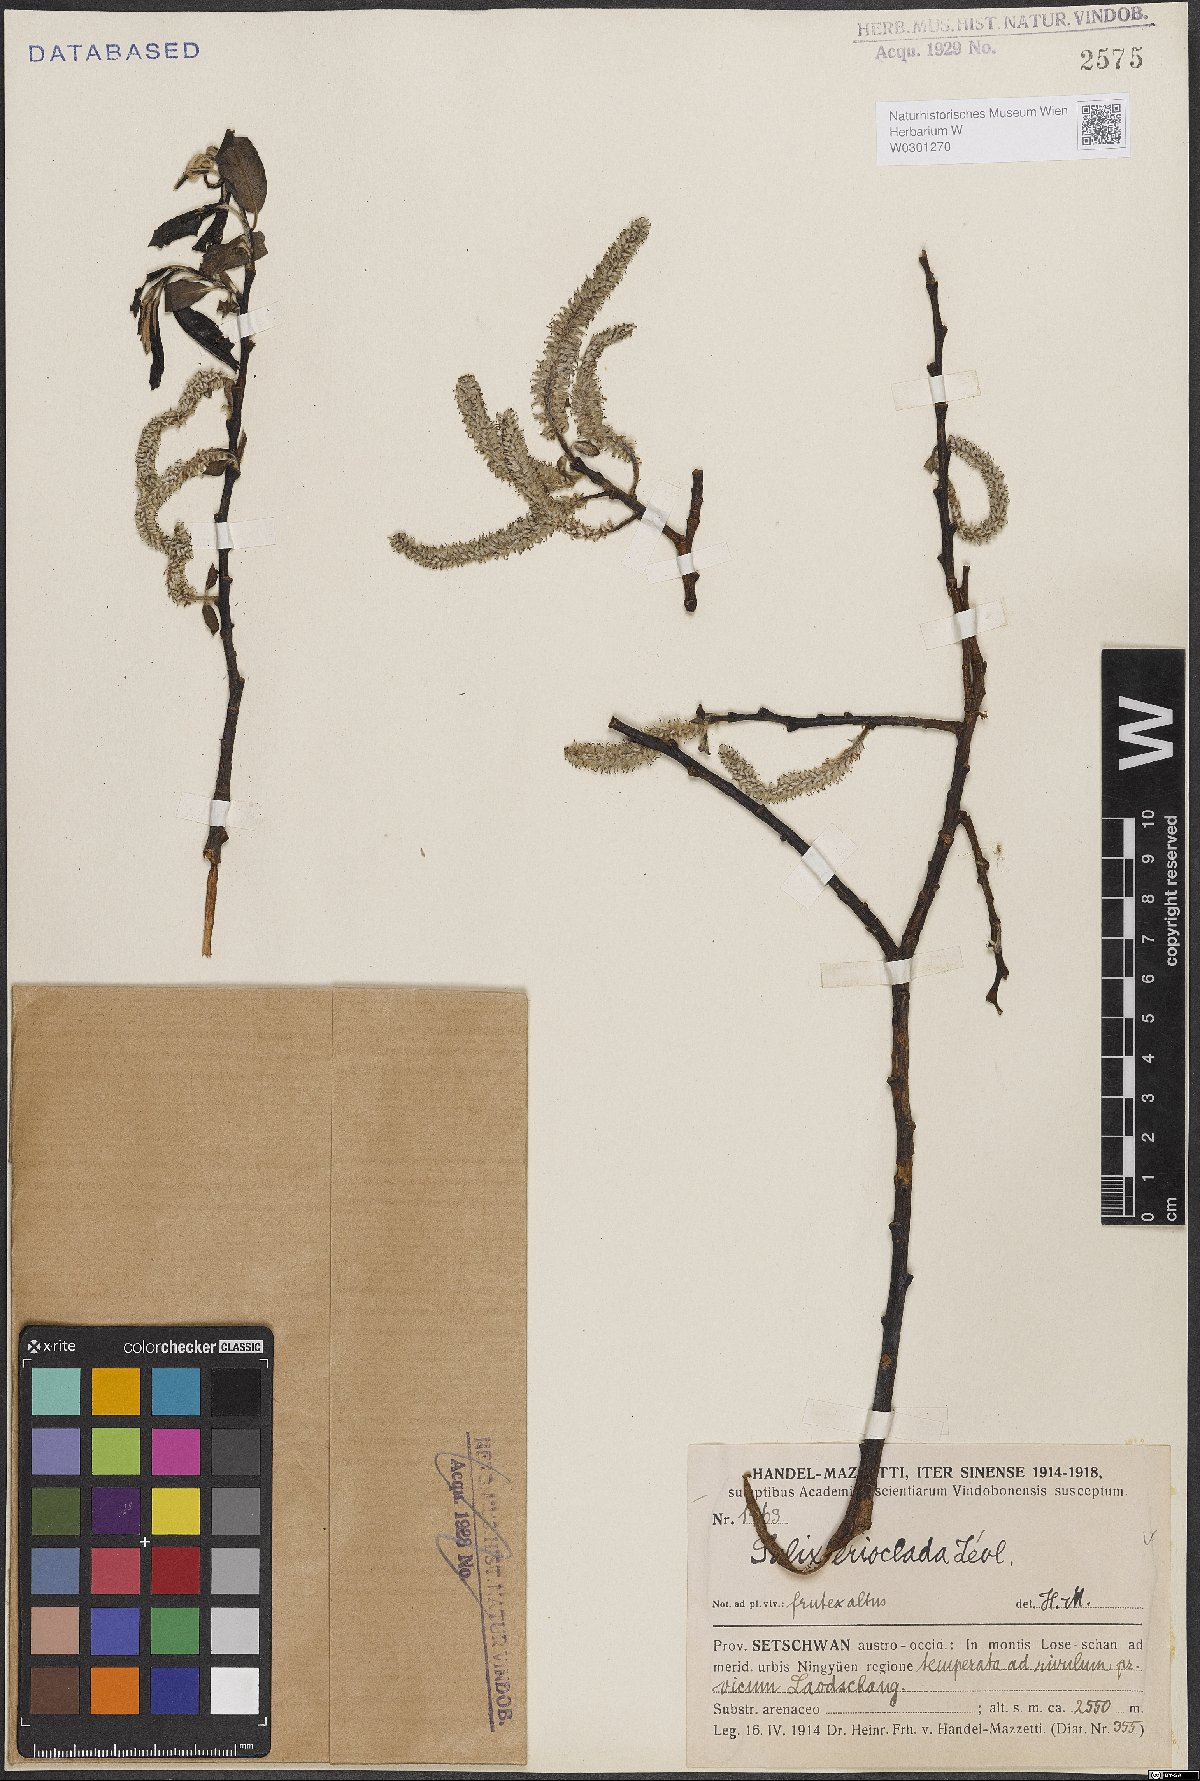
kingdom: Plantae
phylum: Tracheophyta
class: Magnoliopsida
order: Malpighiales
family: Salicaceae
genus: Salix
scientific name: Salix erioclada
